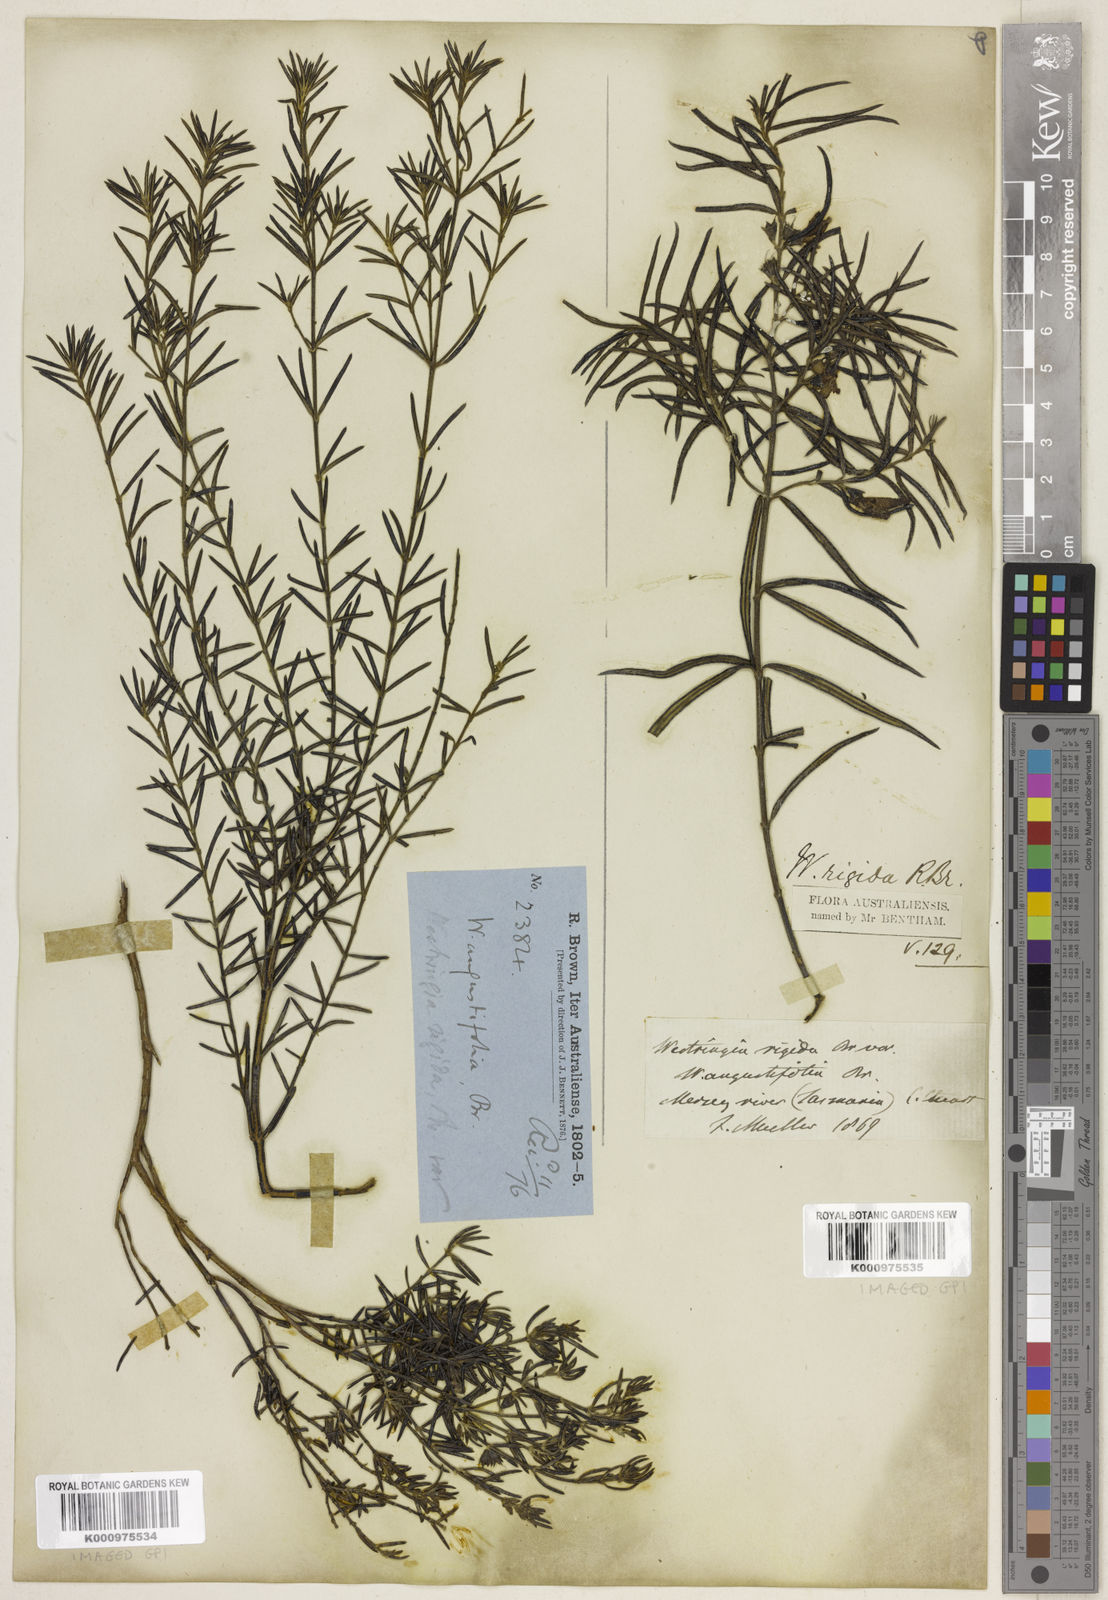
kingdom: Plantae
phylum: Tracheophyta
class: Magnoliopsida
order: Lamiales
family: Lamiaceae
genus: Westringia
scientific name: Westringia angustifolia
